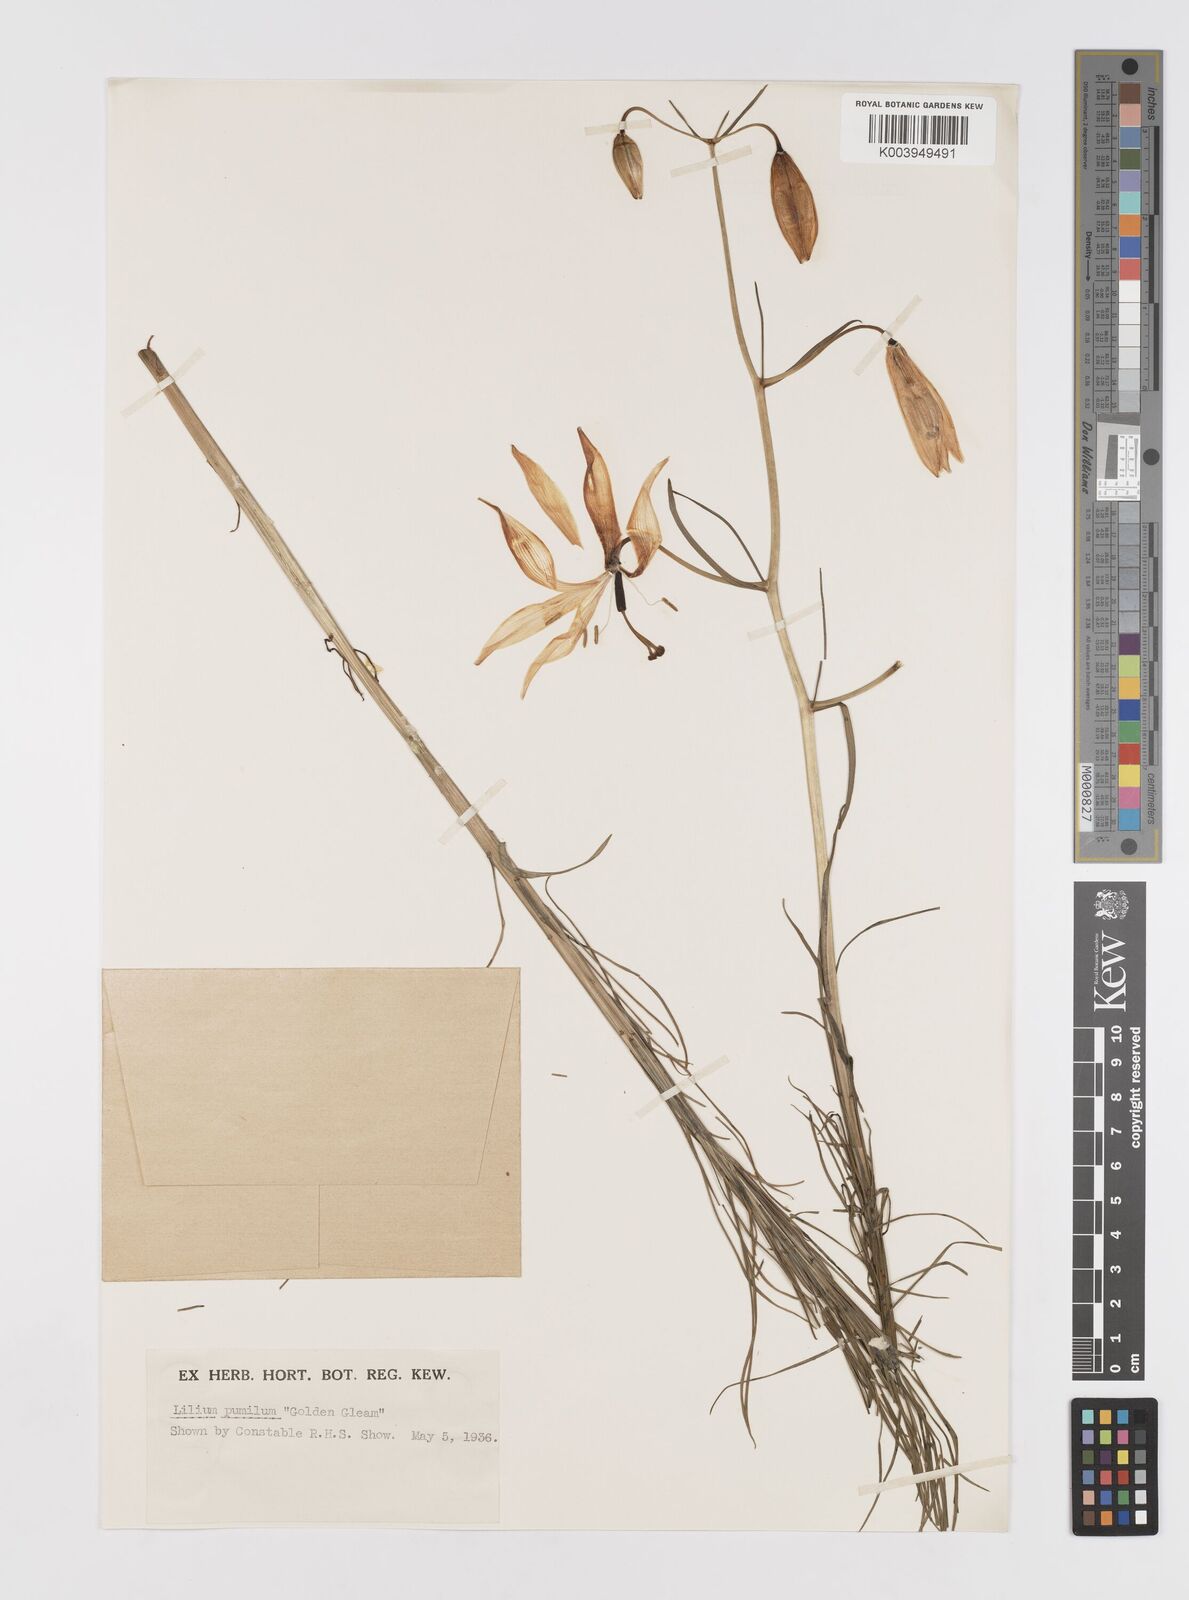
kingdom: Plantae
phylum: Tracheophyta
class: Liliopsida
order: Liliales
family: Liliaceae
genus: Lilium
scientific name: Lilium
